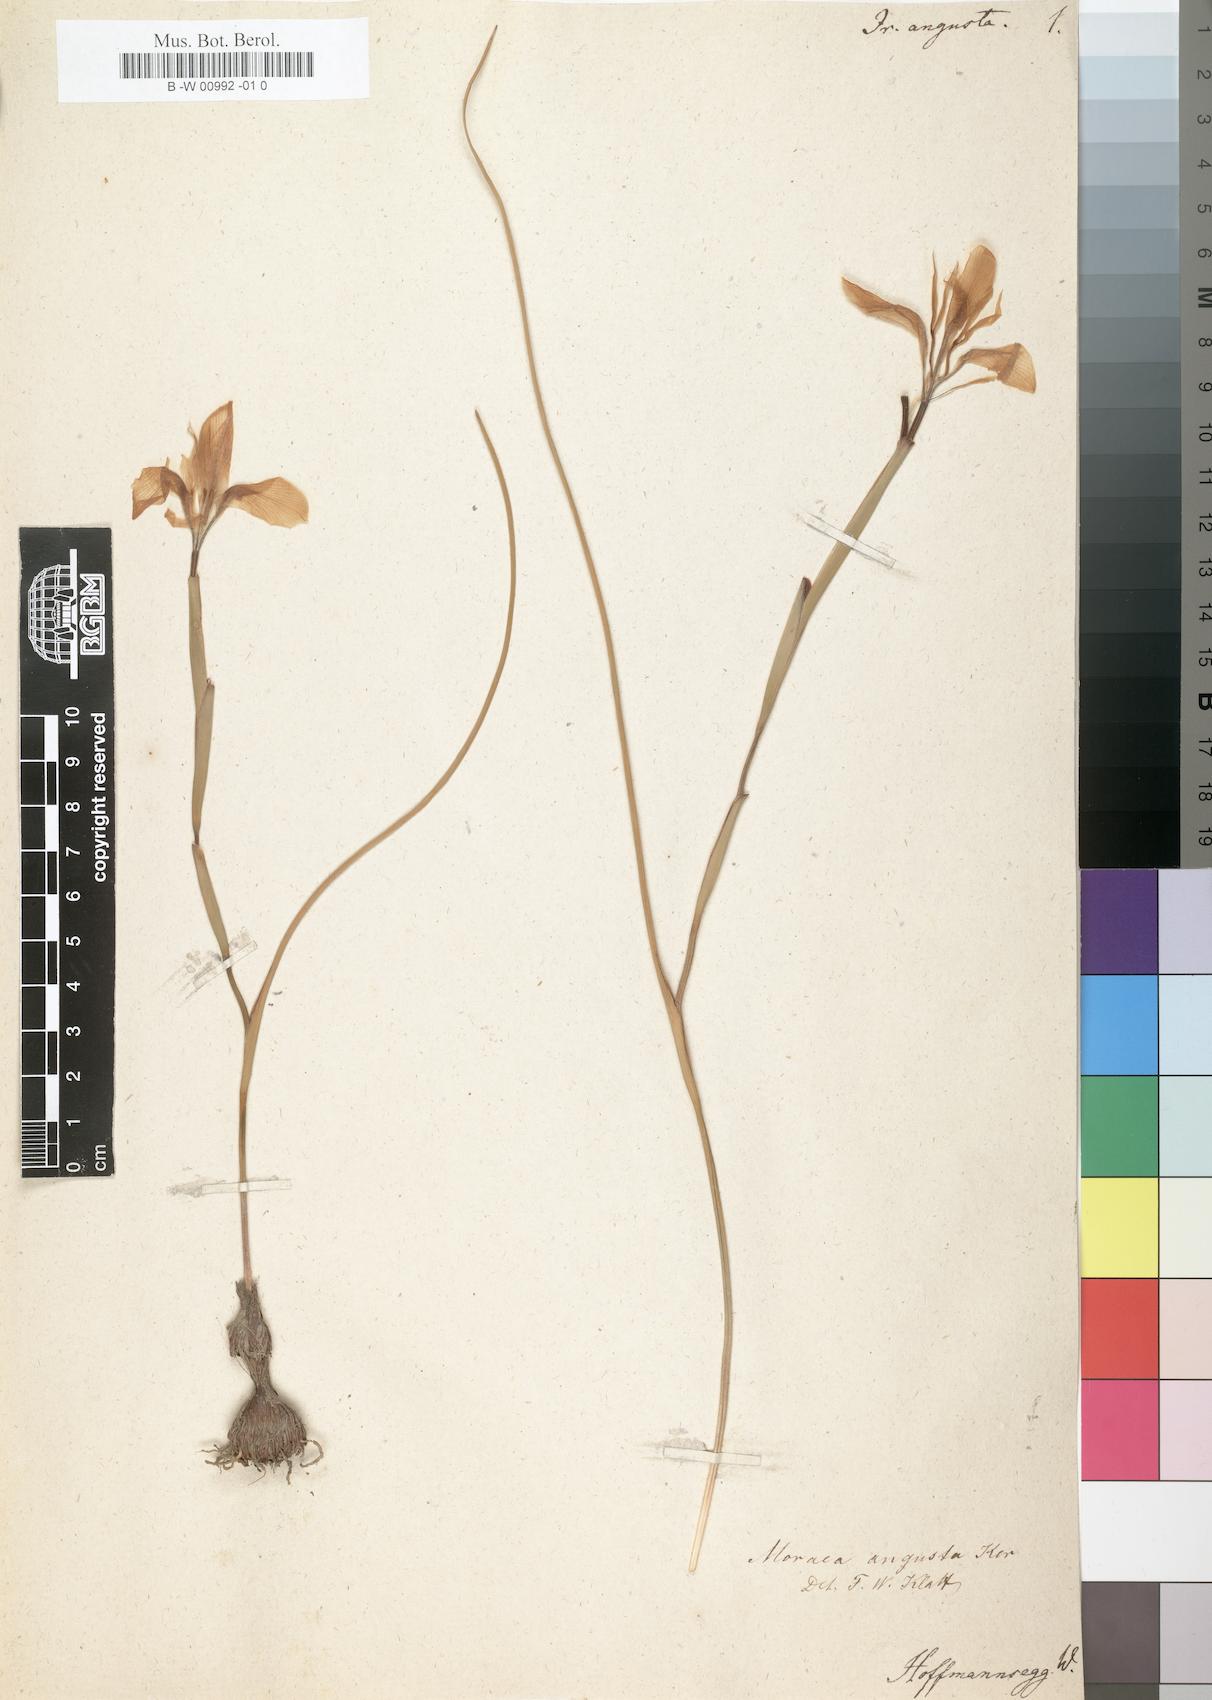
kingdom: Plantae
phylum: Tracheophyta
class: Liliopsida
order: Asparagales
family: Iridaceae
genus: Moraea
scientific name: Moraea angusta
